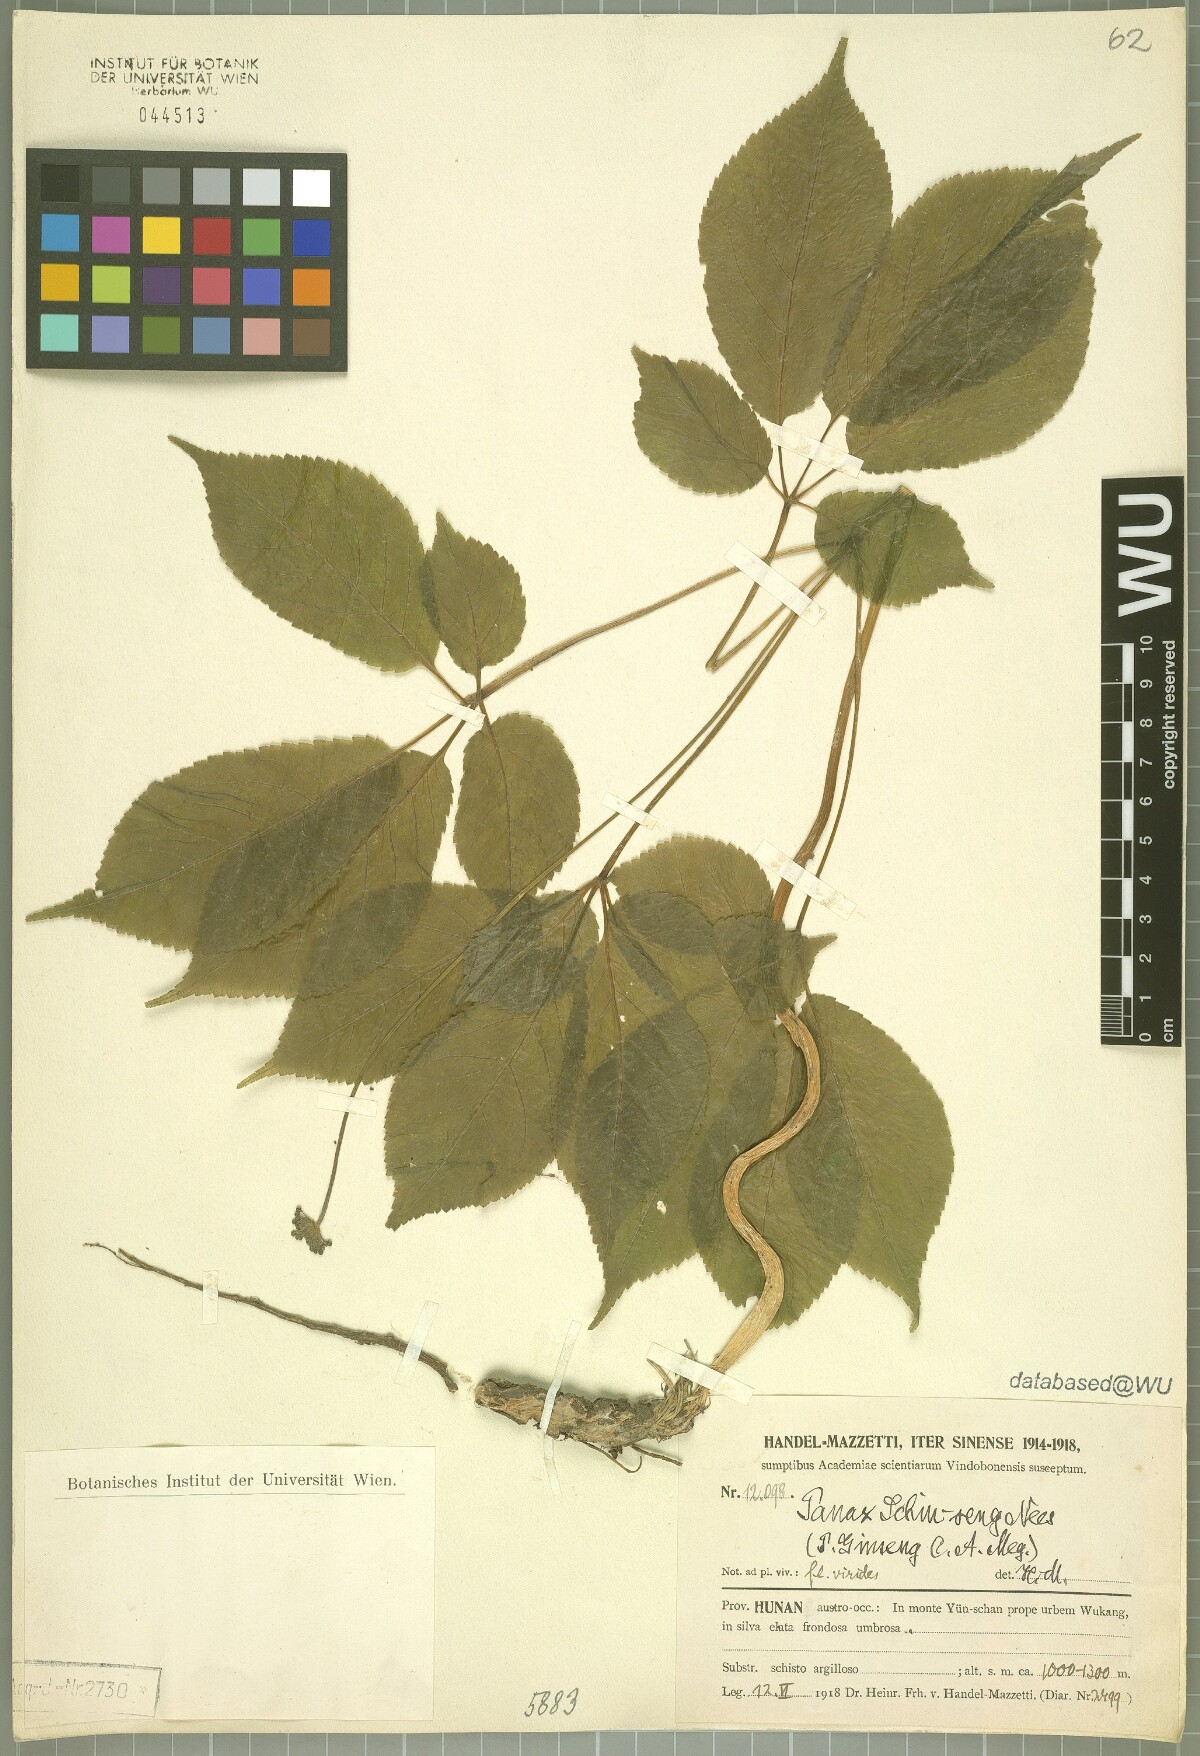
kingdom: Plantae
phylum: Tracheophyta
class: Magnoliopsida
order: Apiales
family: Araliaceae
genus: Panax
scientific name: Panax ginseng
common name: Chinese ginseng
